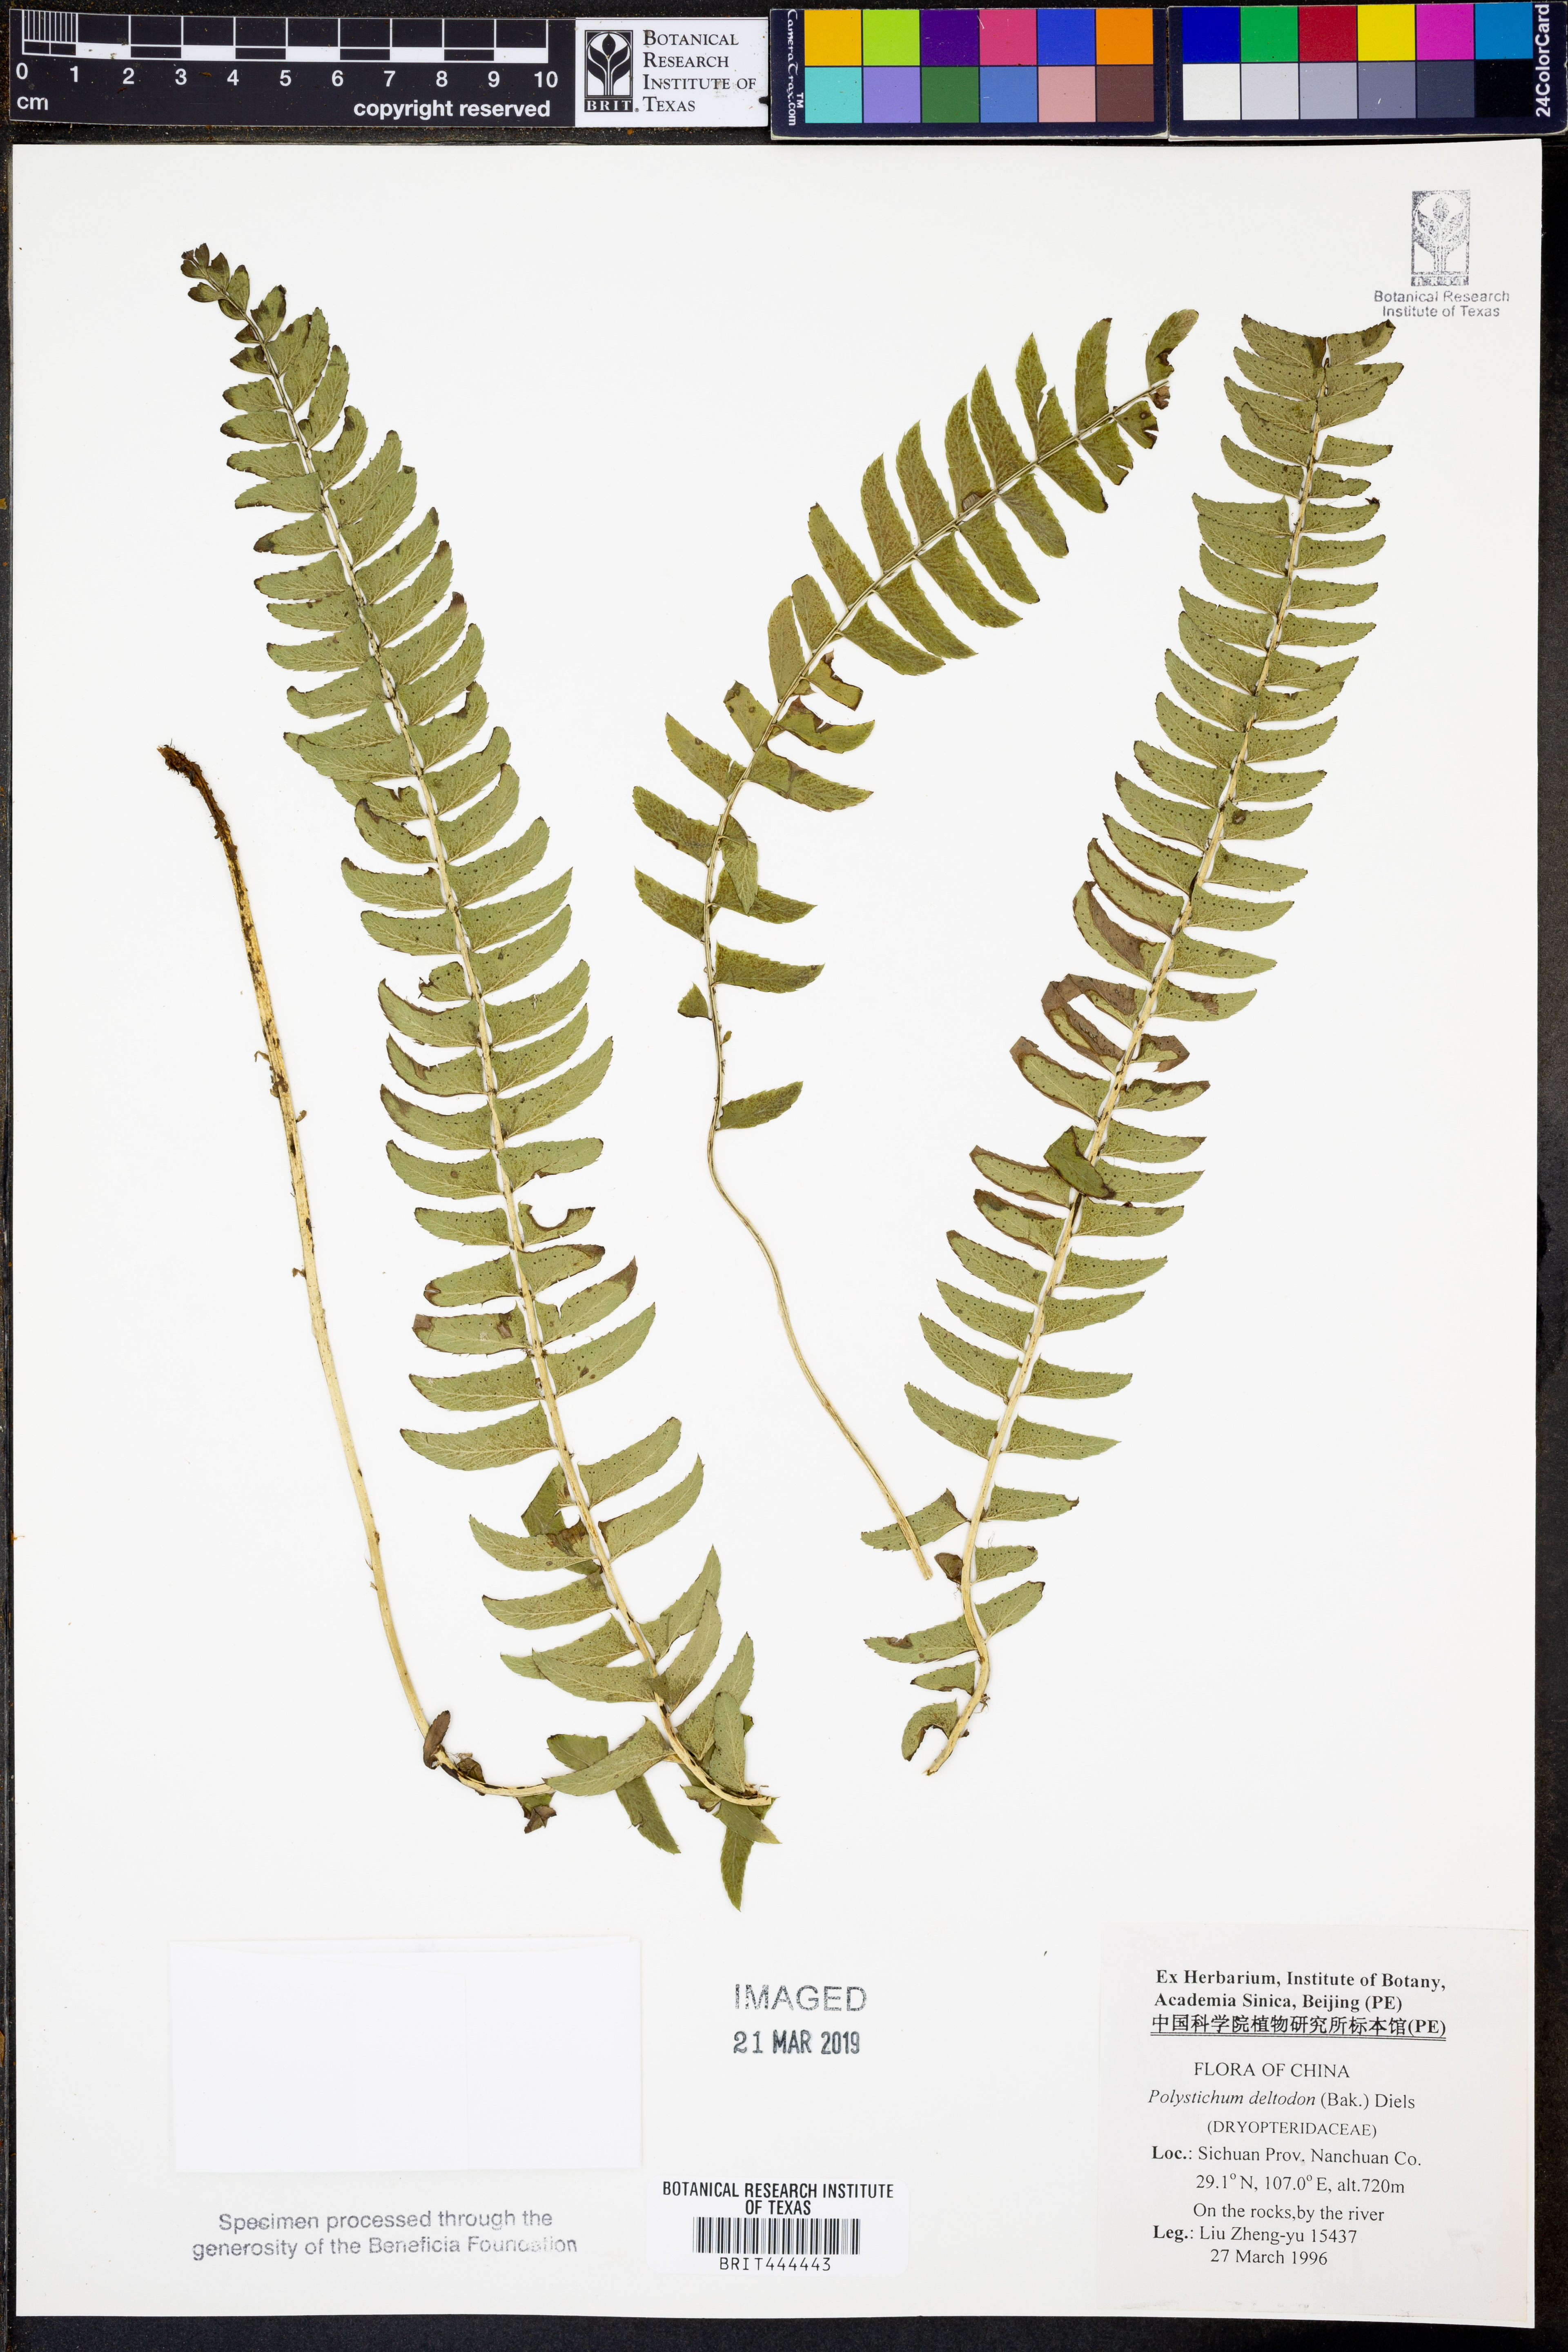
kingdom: Plantae
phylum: Tracheophyta
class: Polypodiopsida
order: Polypodiales
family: Dryopteridaceae
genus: Polystichum
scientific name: Polystichum deltodon
